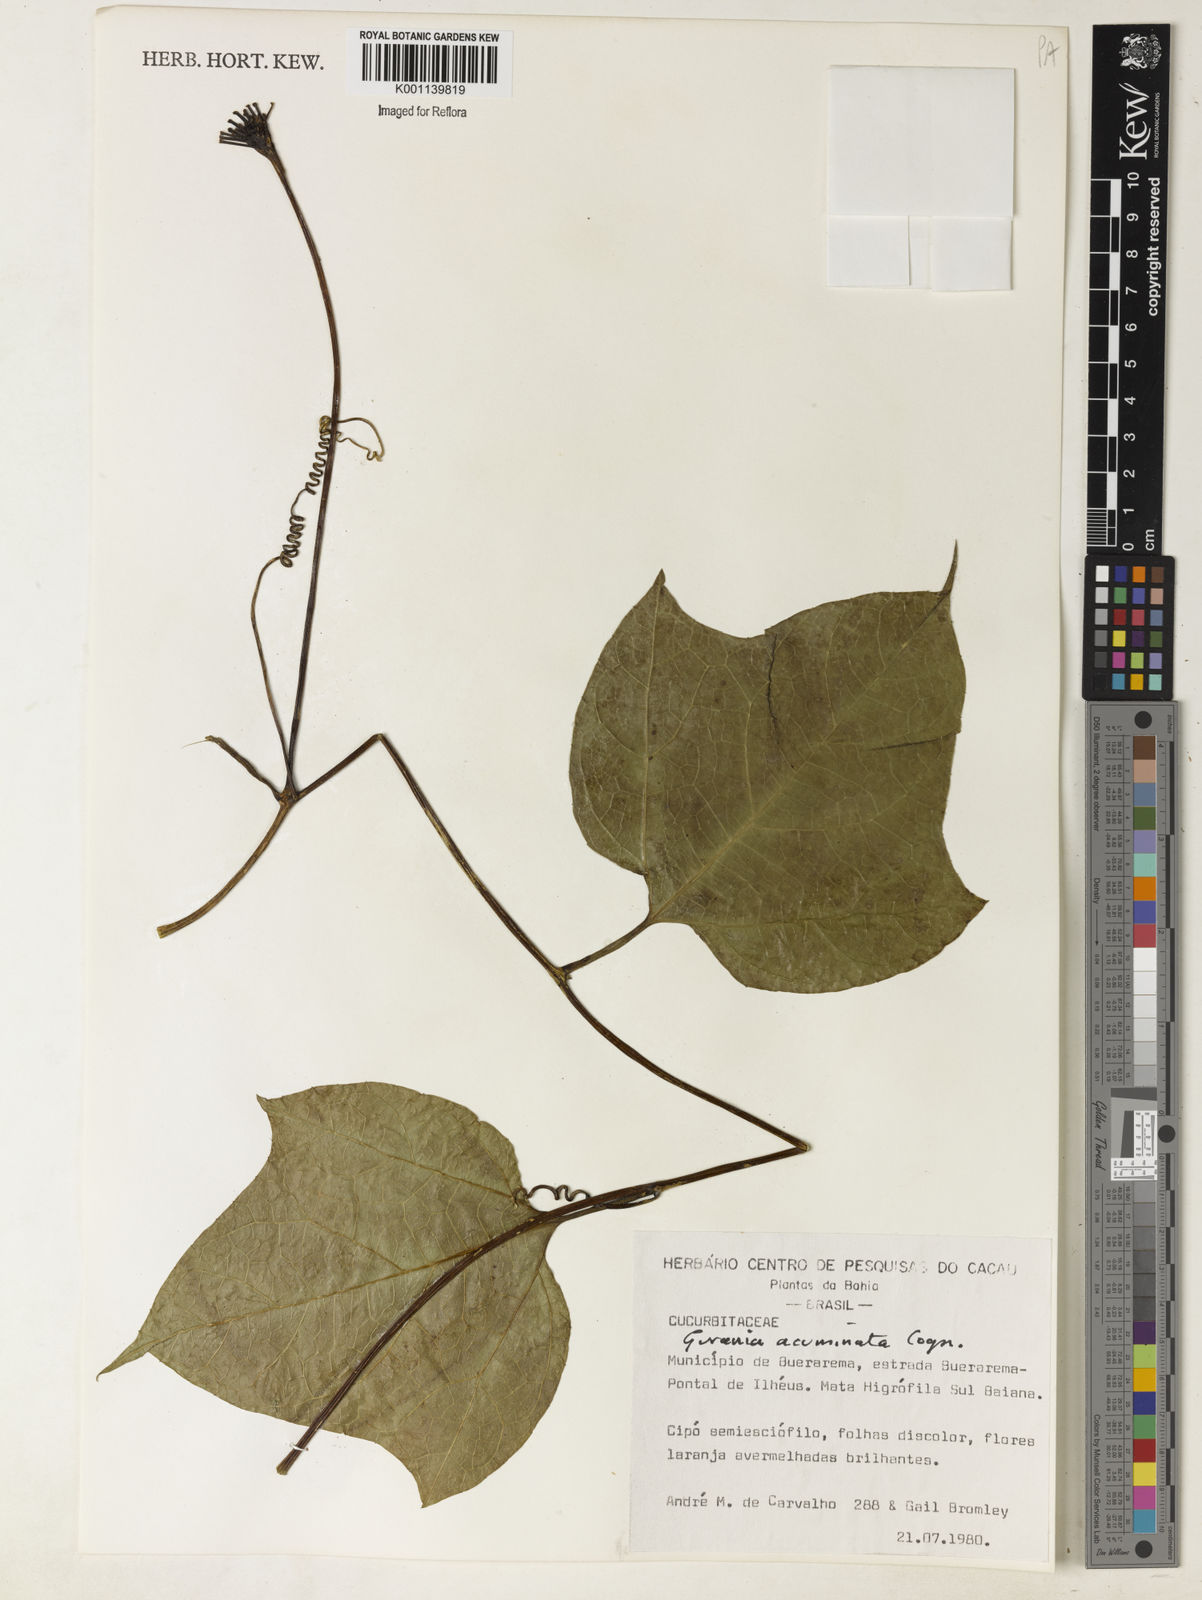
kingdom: Plantae
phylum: Tracheophyta
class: Magnoliopsida
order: Cucurbitales
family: Cucurbitaceae
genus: Gurania
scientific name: Gurania acuminata
